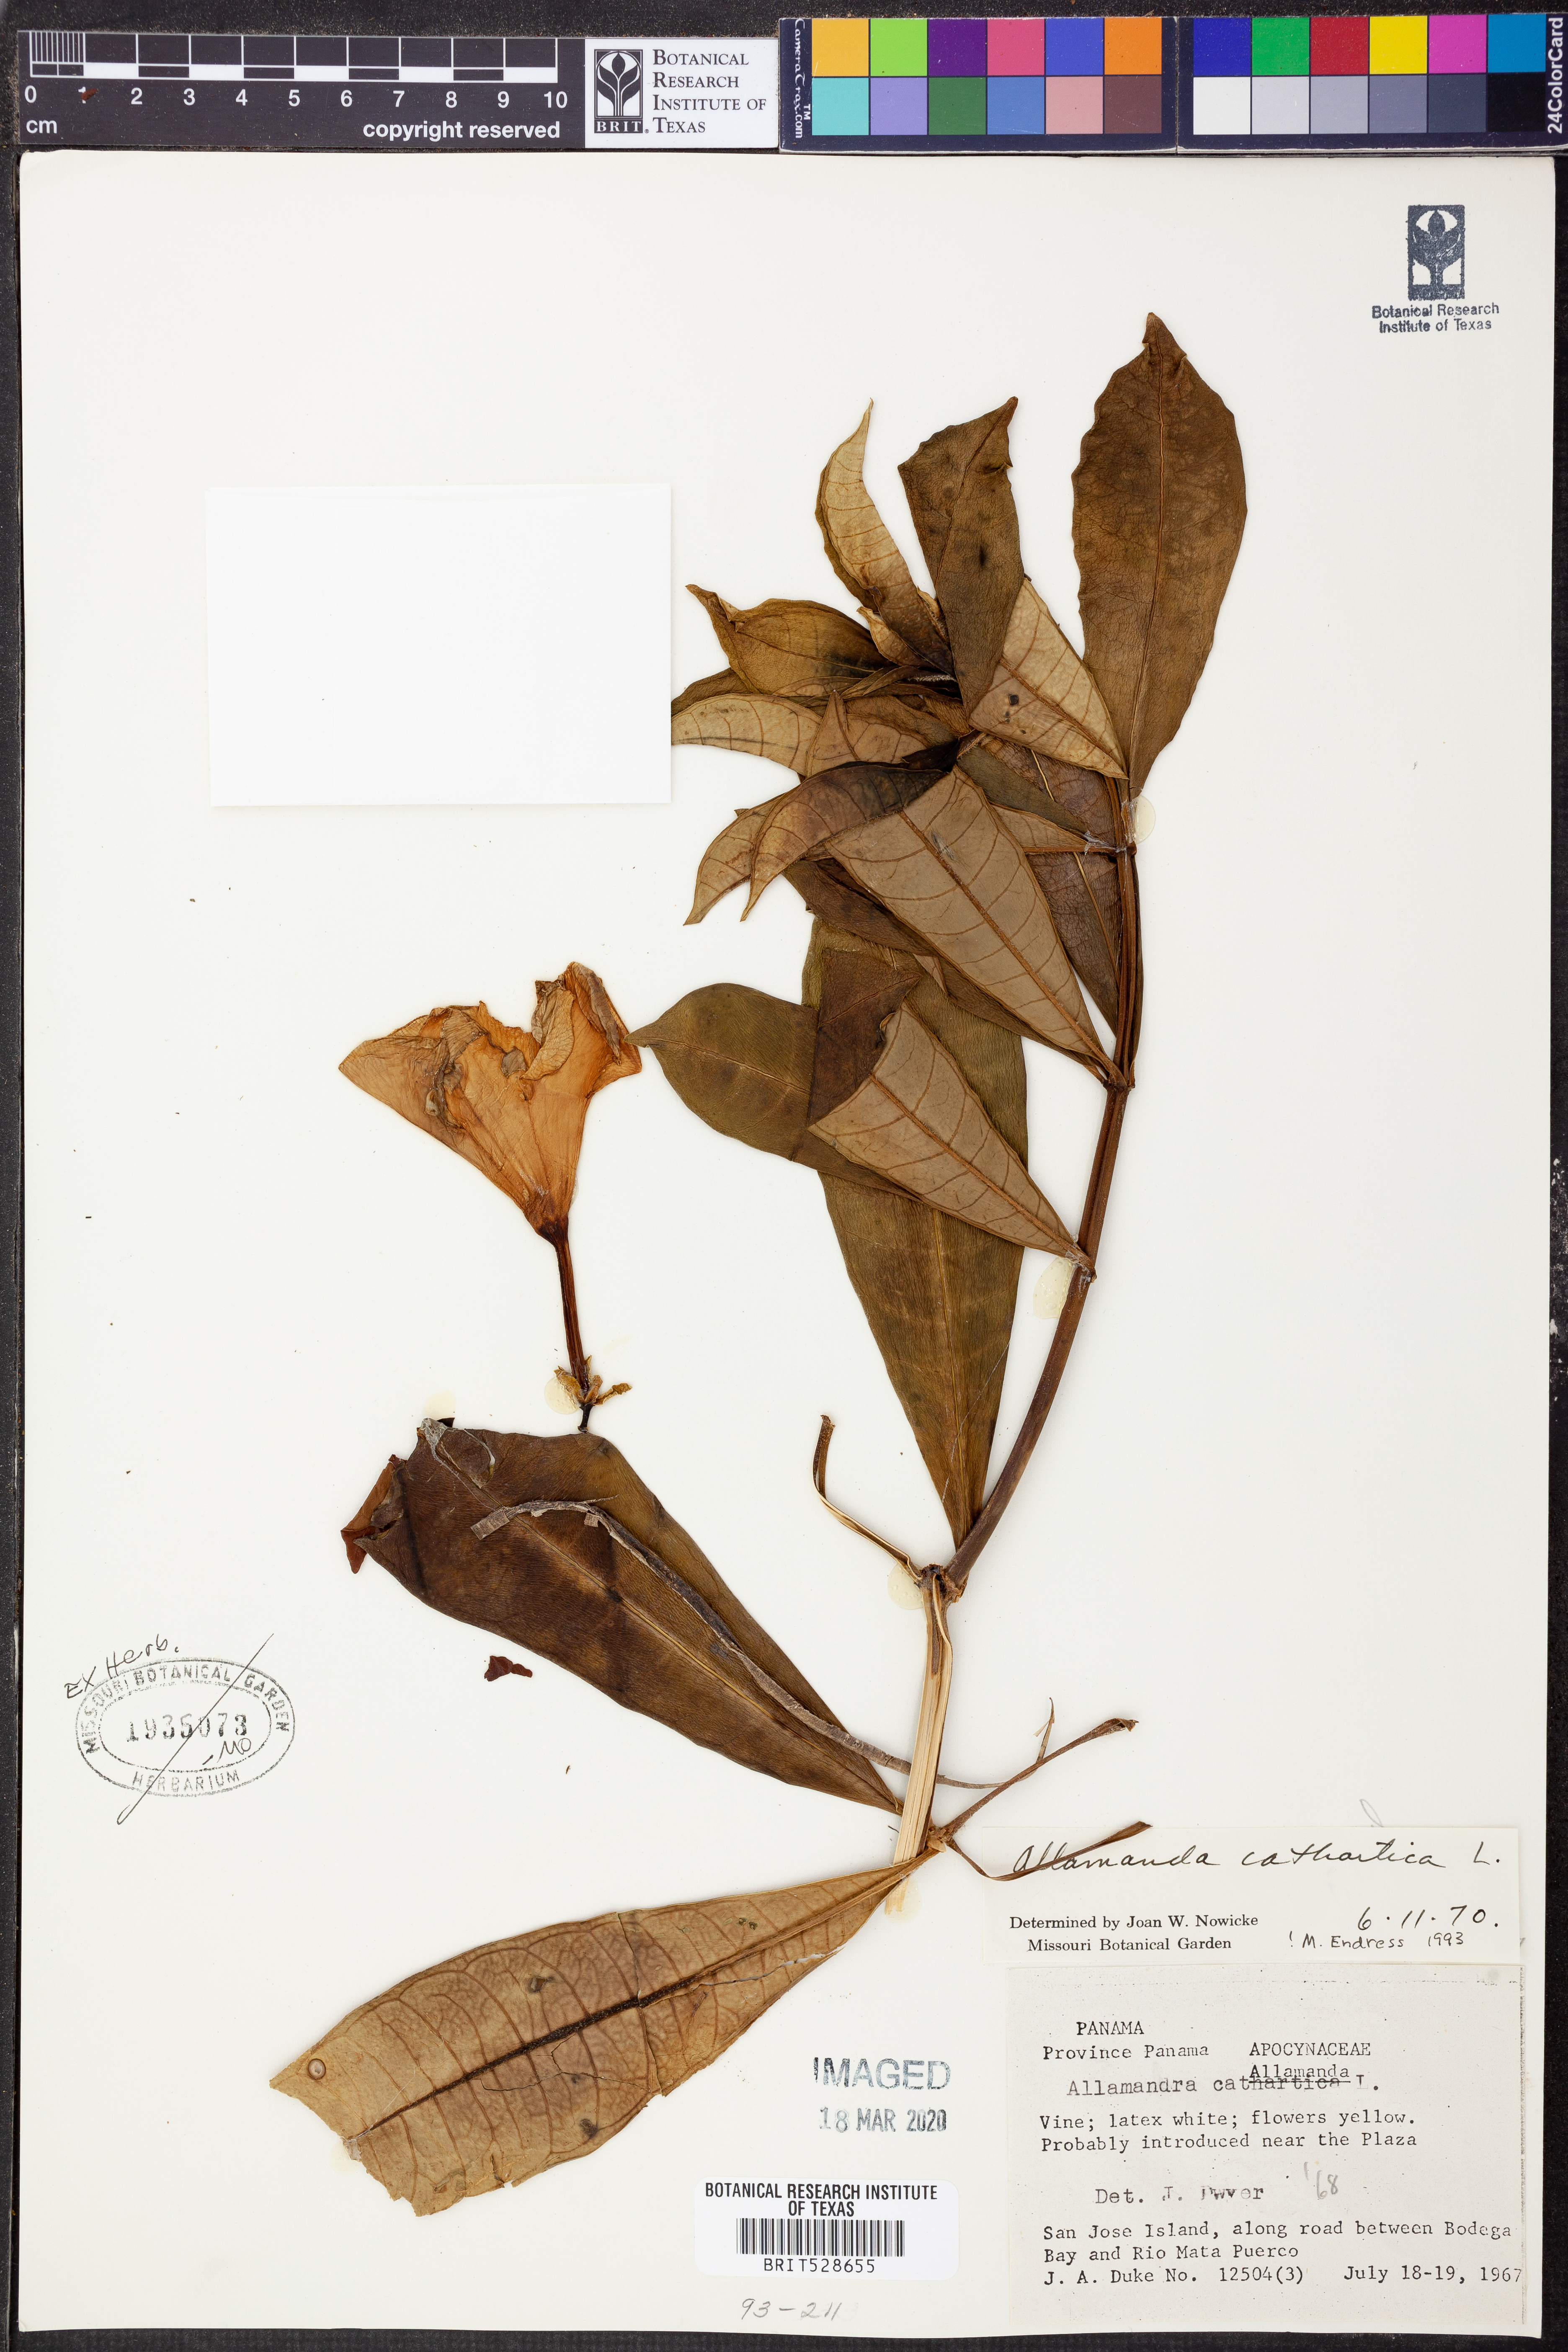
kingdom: Plantae
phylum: Tracheophyta
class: Magnoliopsida
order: Gentianales
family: Apocynaceae
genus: Allamanda
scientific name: Allamanda schottii
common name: Bush allamanda
